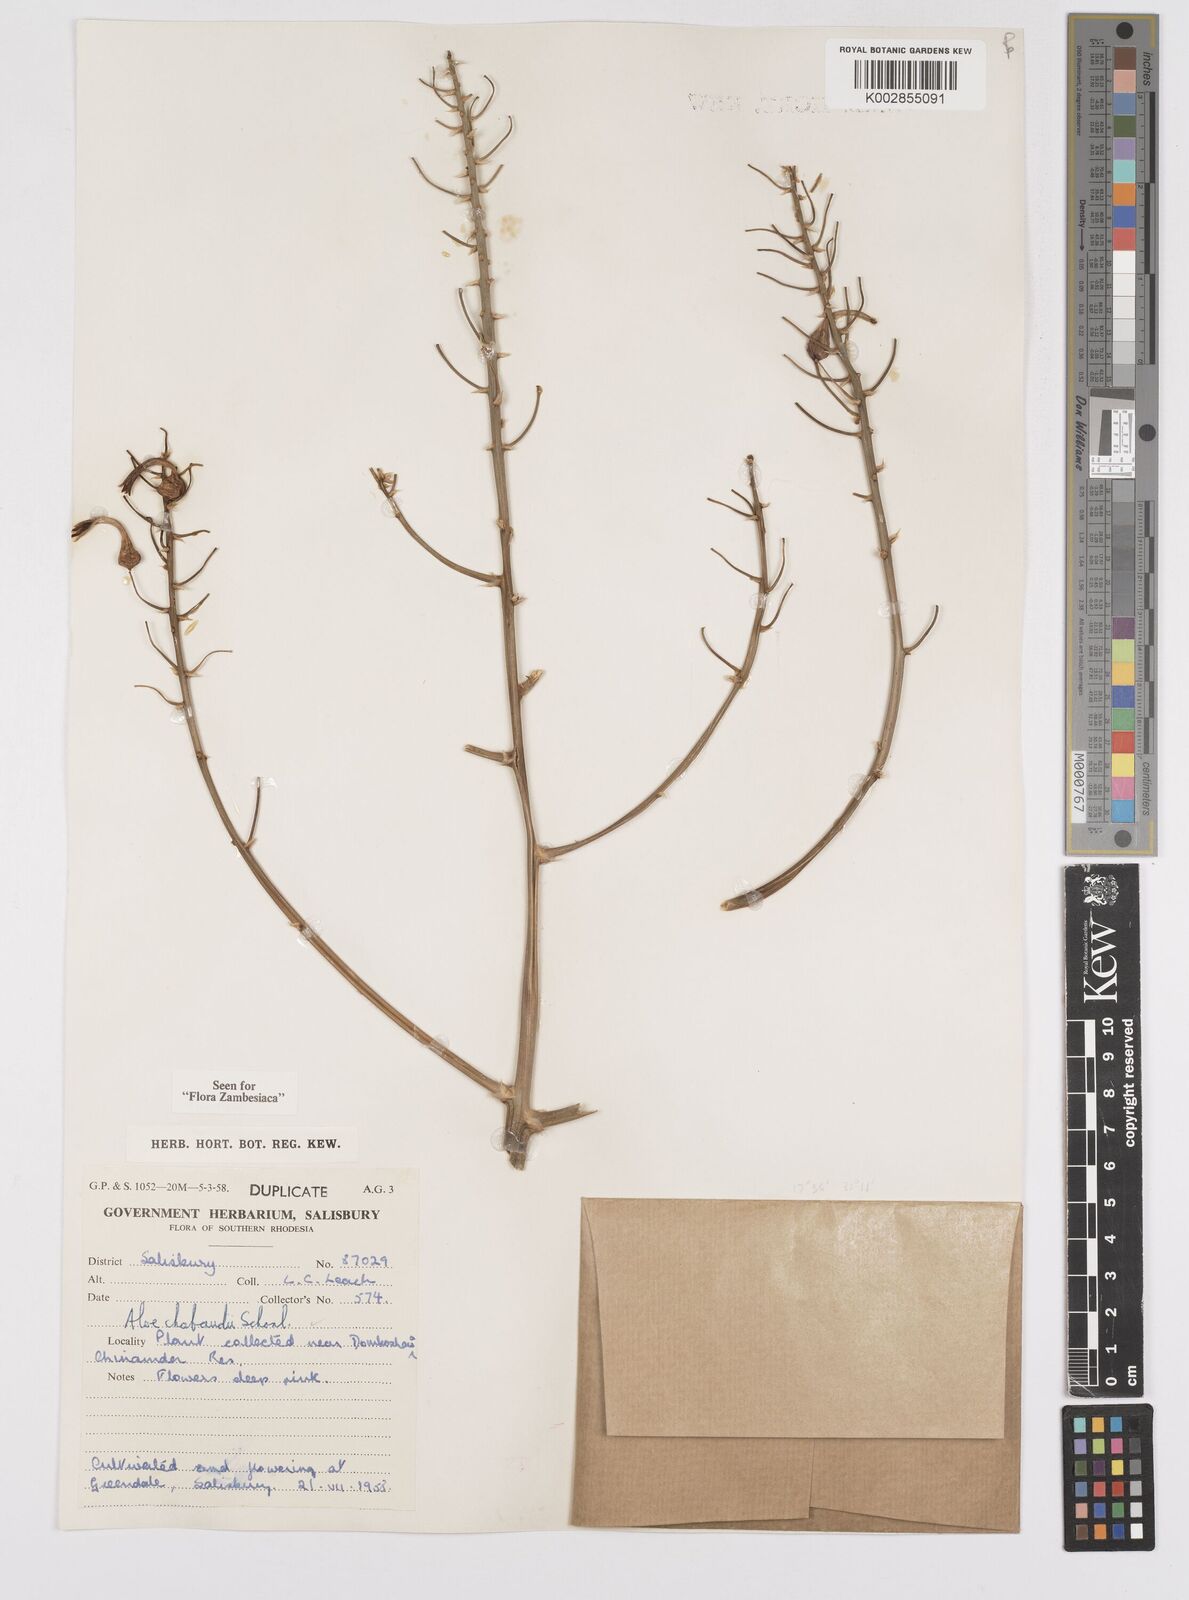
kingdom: Plantae
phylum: Tracheophyta
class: Liliopsida
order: Asparagales
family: Asphodelaceae
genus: Aloe
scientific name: Aloe chabaudii
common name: Chabaud's aloe
